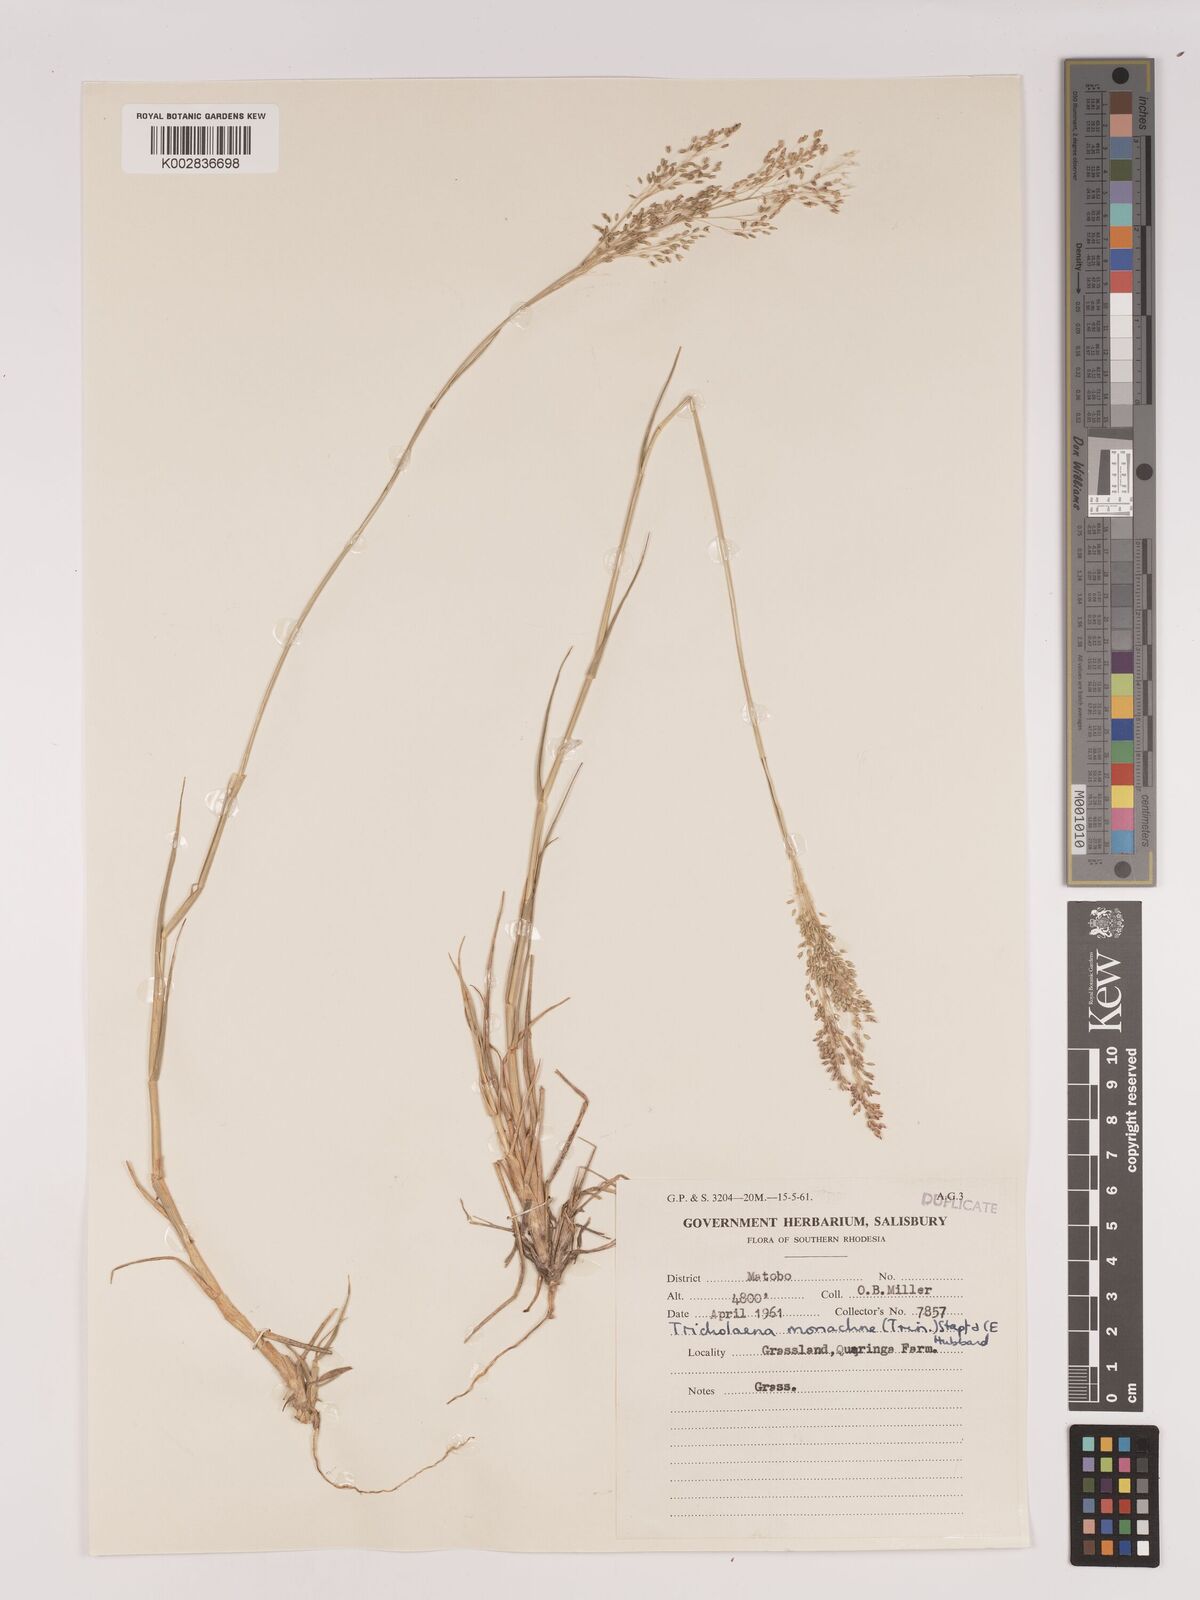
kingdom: Plantae
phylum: Tracheophyta
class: Liliopsida
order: Poales
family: Poaceae
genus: Tricholaena
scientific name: Tricholaena monachne
